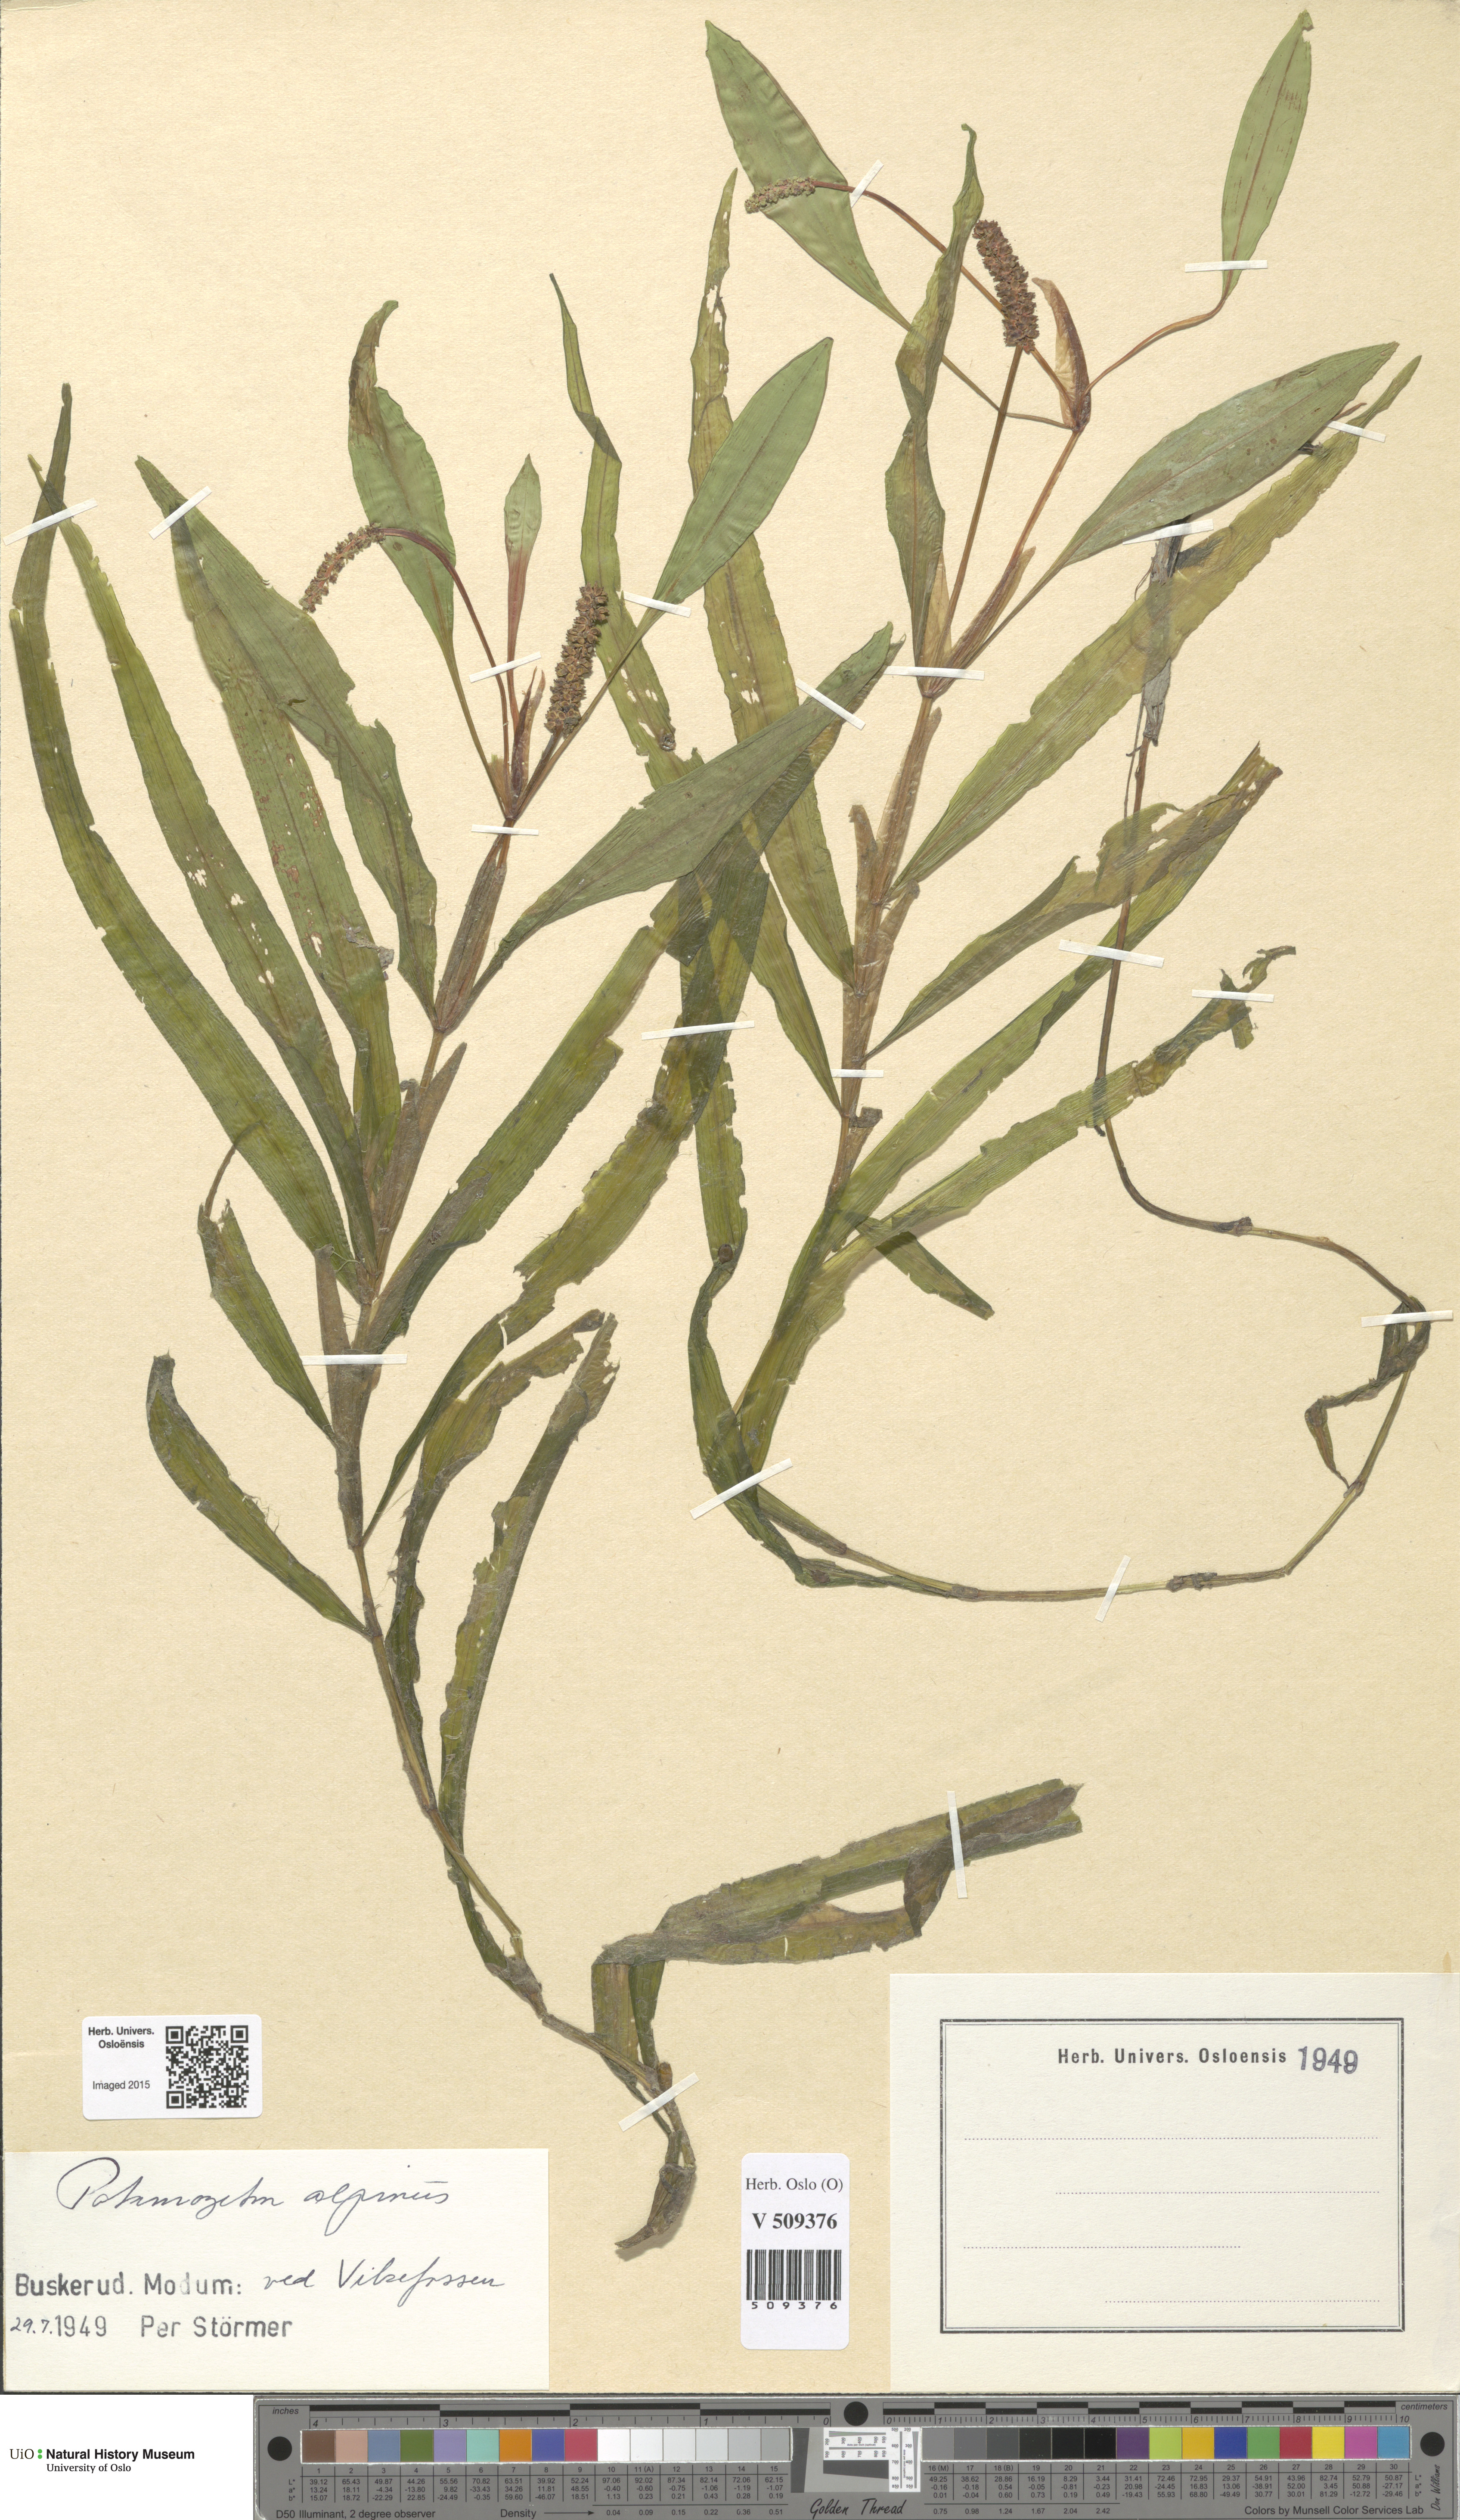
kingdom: Plantae
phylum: Tracheophyta
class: Liliopsida
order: Alismatales
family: Potamogetonaceae
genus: Potamogeton
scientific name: Potamogeton alpinus
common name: Red pondweed
